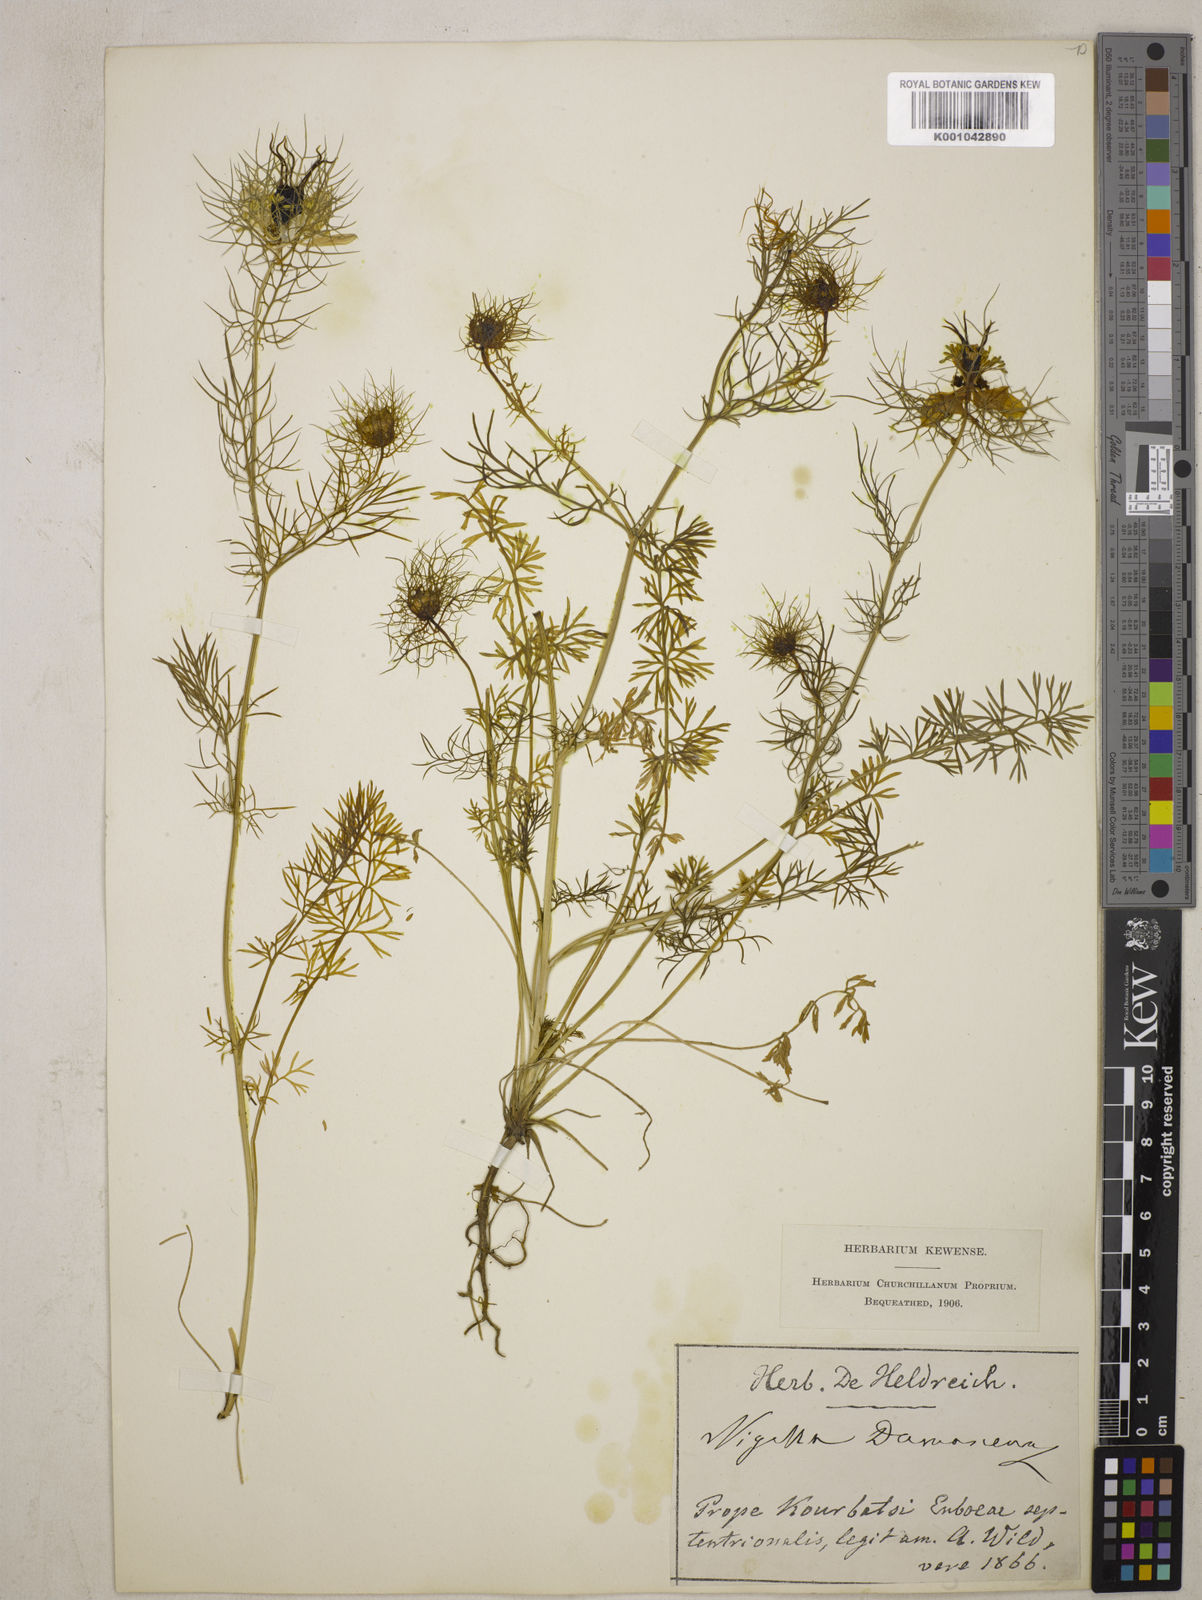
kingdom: Plantae
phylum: Tracheophyta
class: Magnoliopsida
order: Ranunculales
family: Ranunculaceae
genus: Nigella
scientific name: Nigella damascena
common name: Love-in-a-mist
